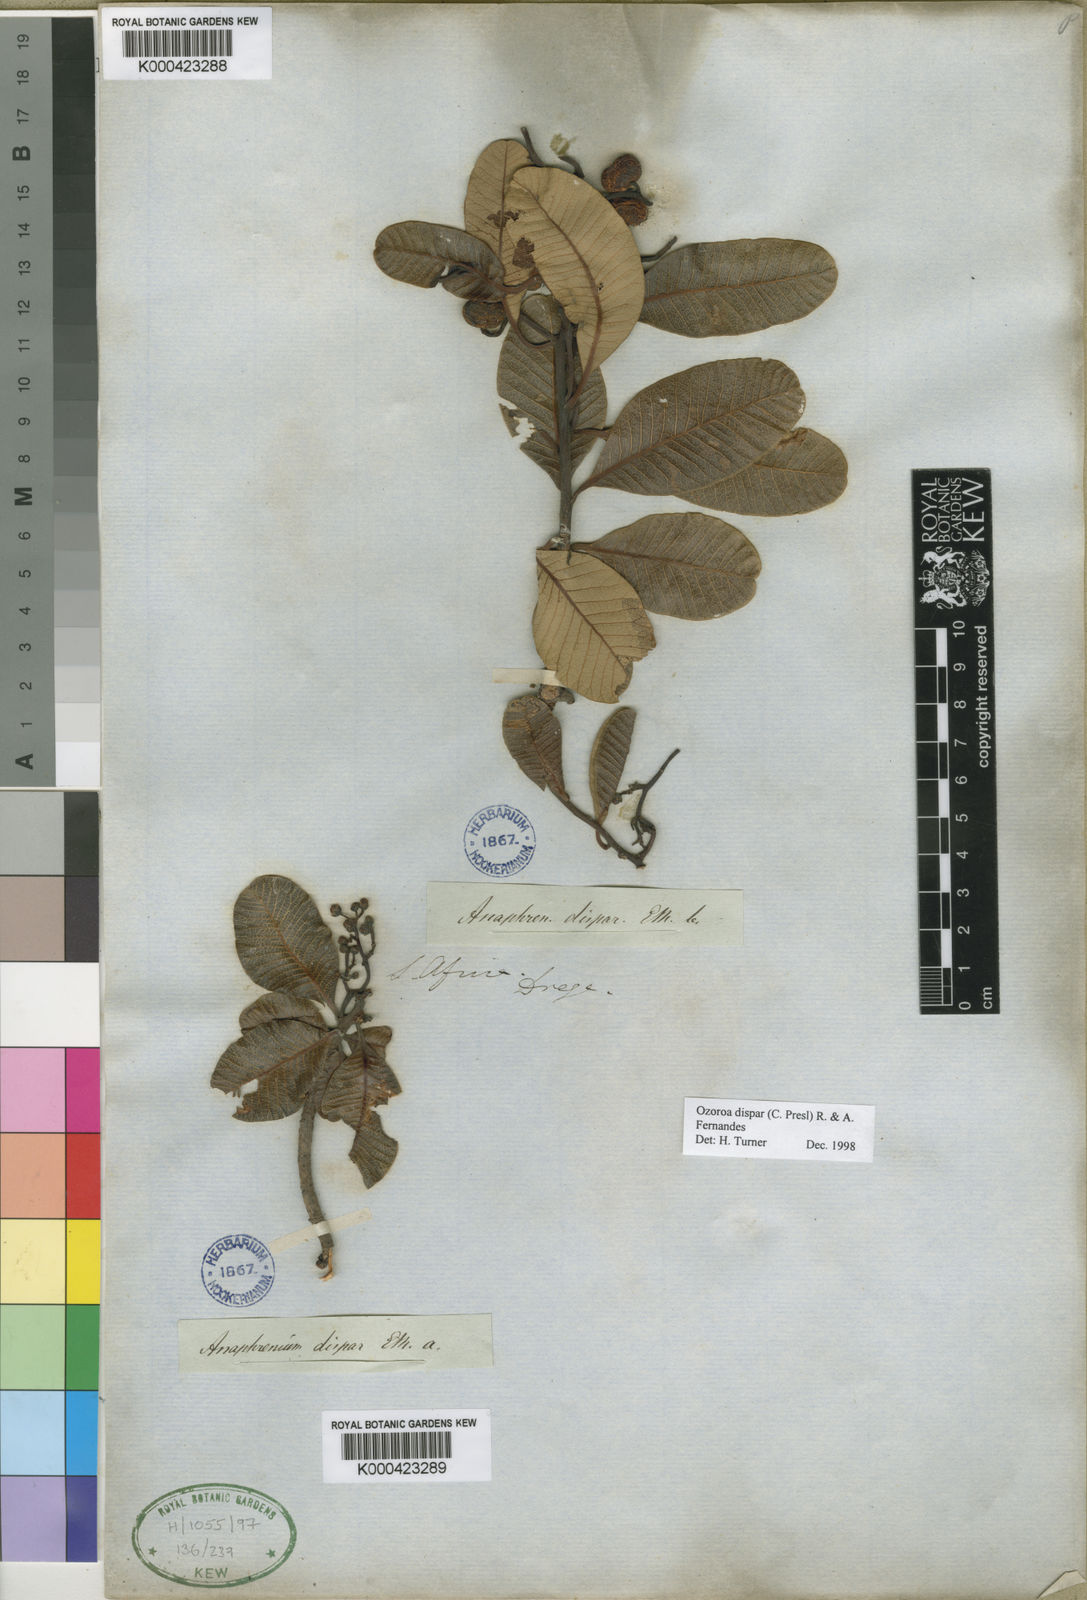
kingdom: Plantae
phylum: Tracheophyta
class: Magnoliopsida
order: Sapindales
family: Anacardiaceae
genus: Ozoroa
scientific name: Ozoroa dispar
